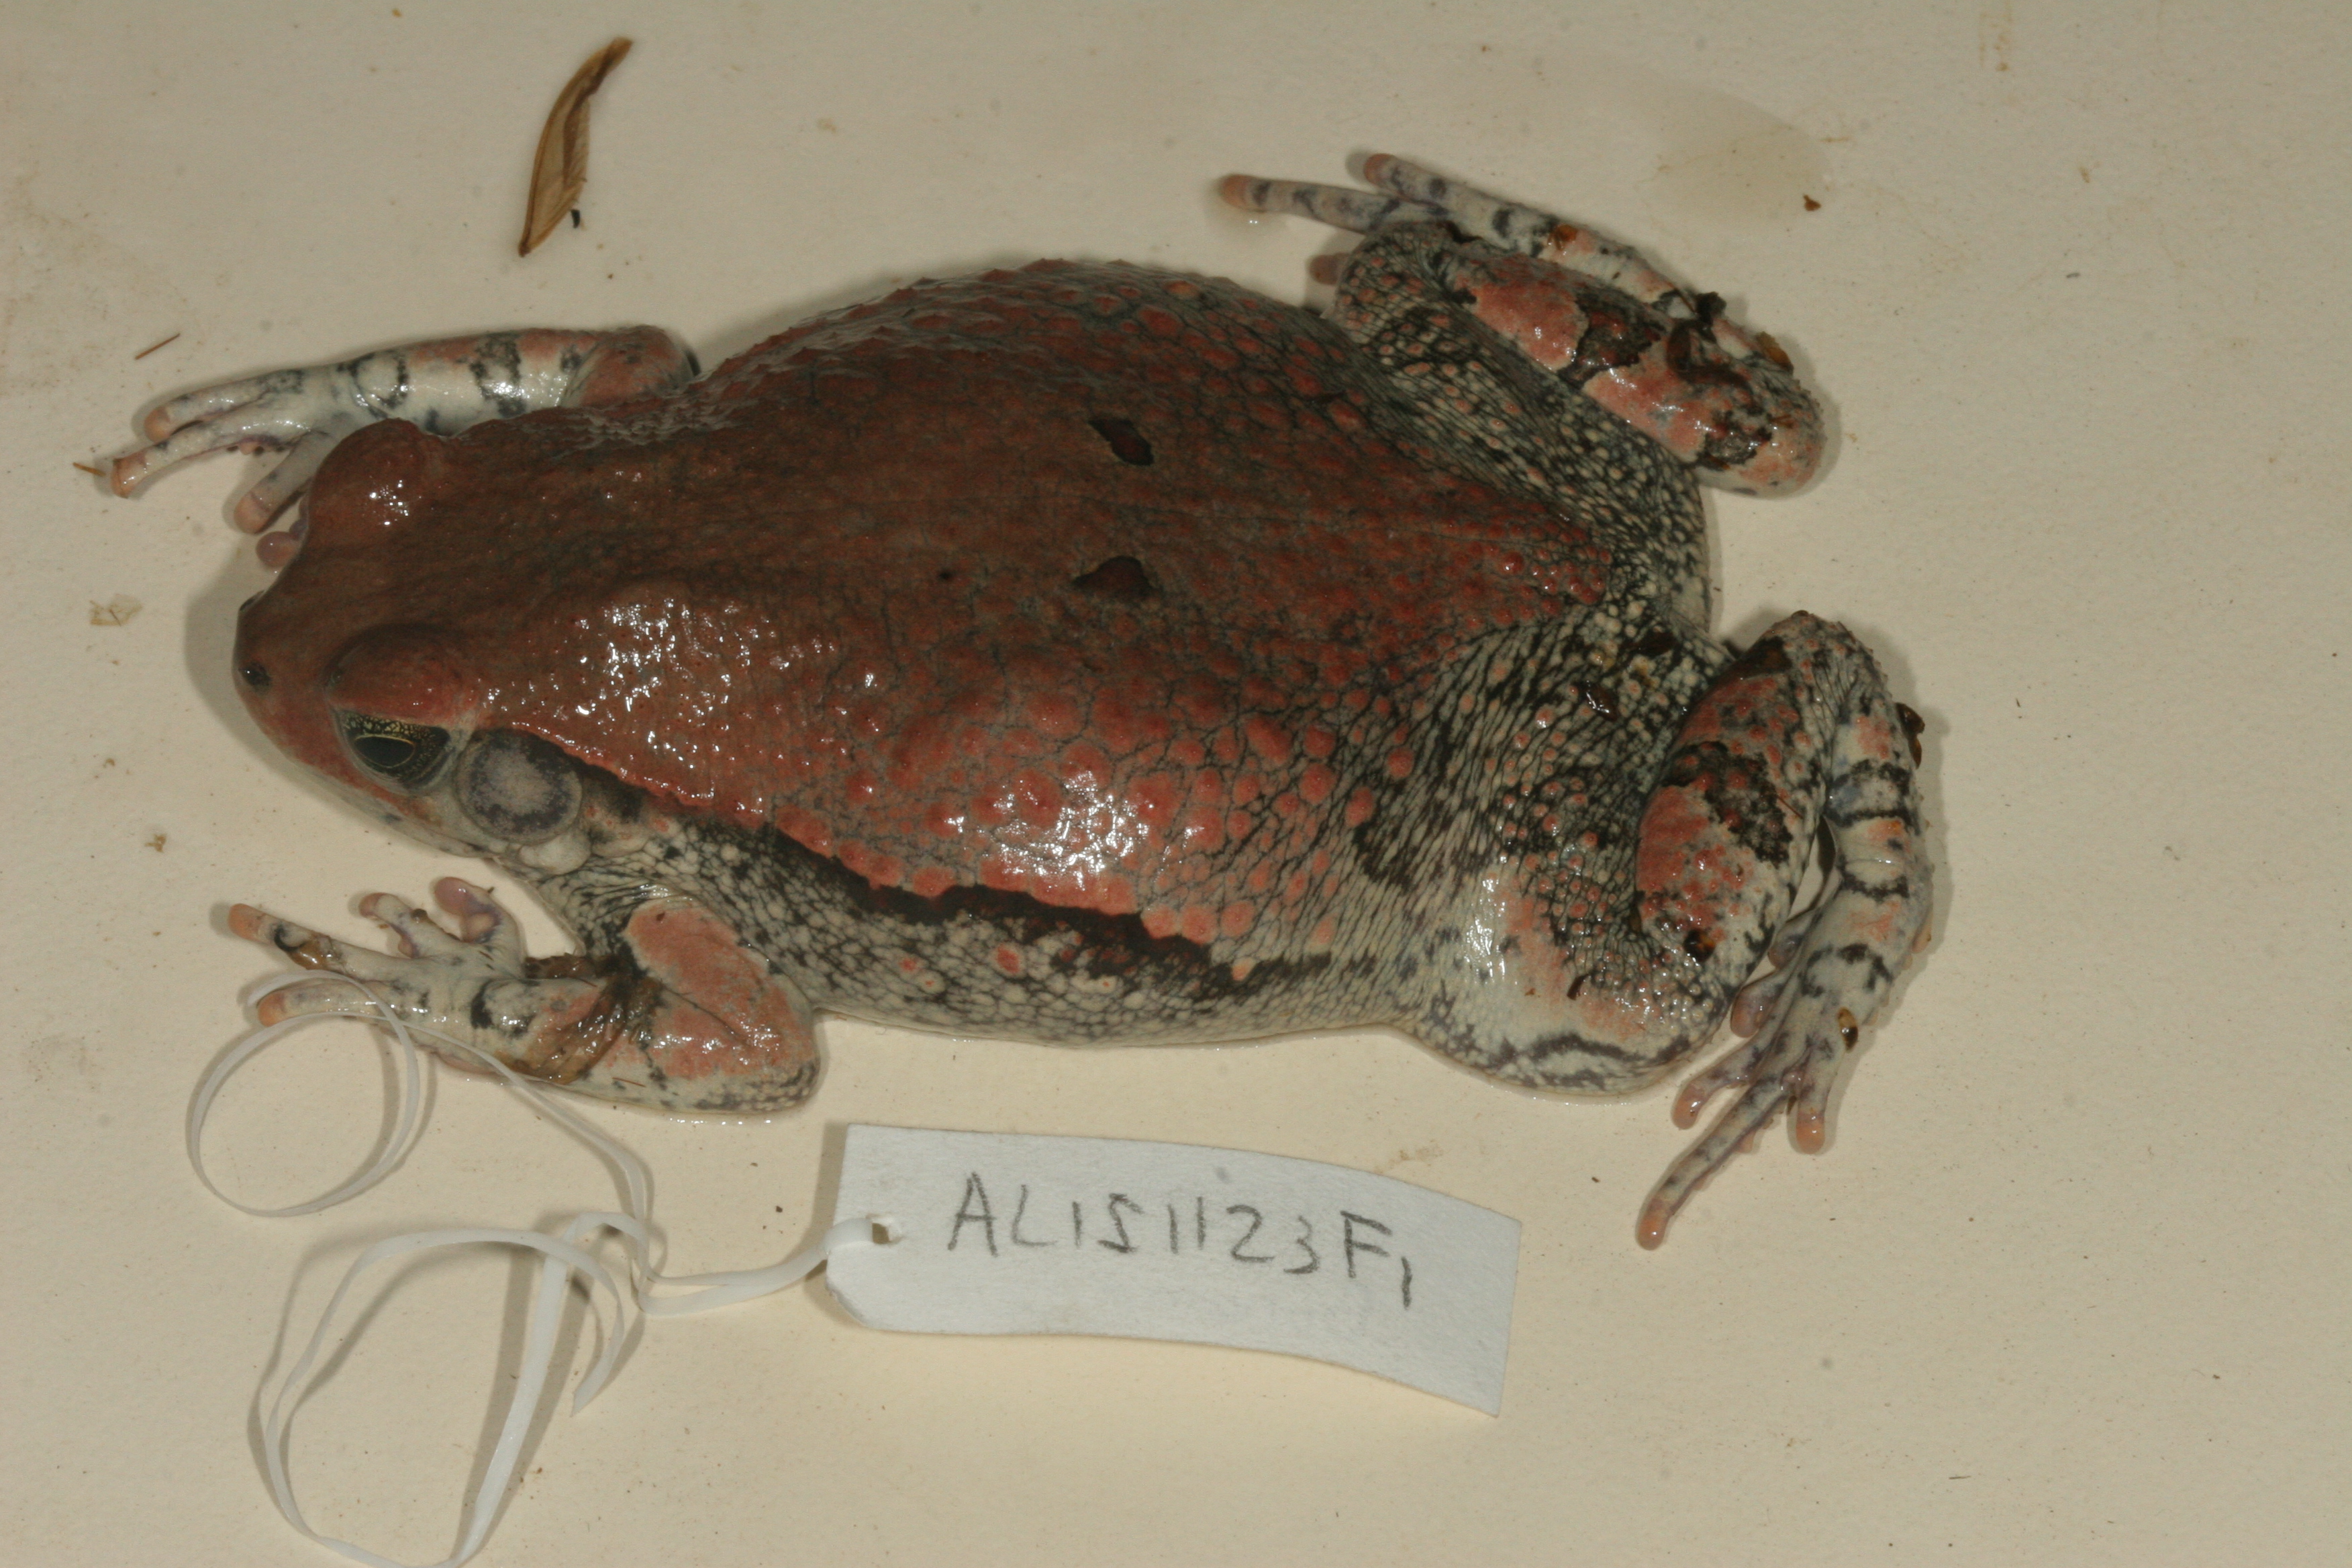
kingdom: Animalia
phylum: Chordata
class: Amphibia
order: Anura
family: Bufonidae
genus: Schismaderma
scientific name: Schismaderma carens
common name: African split-skin toad
